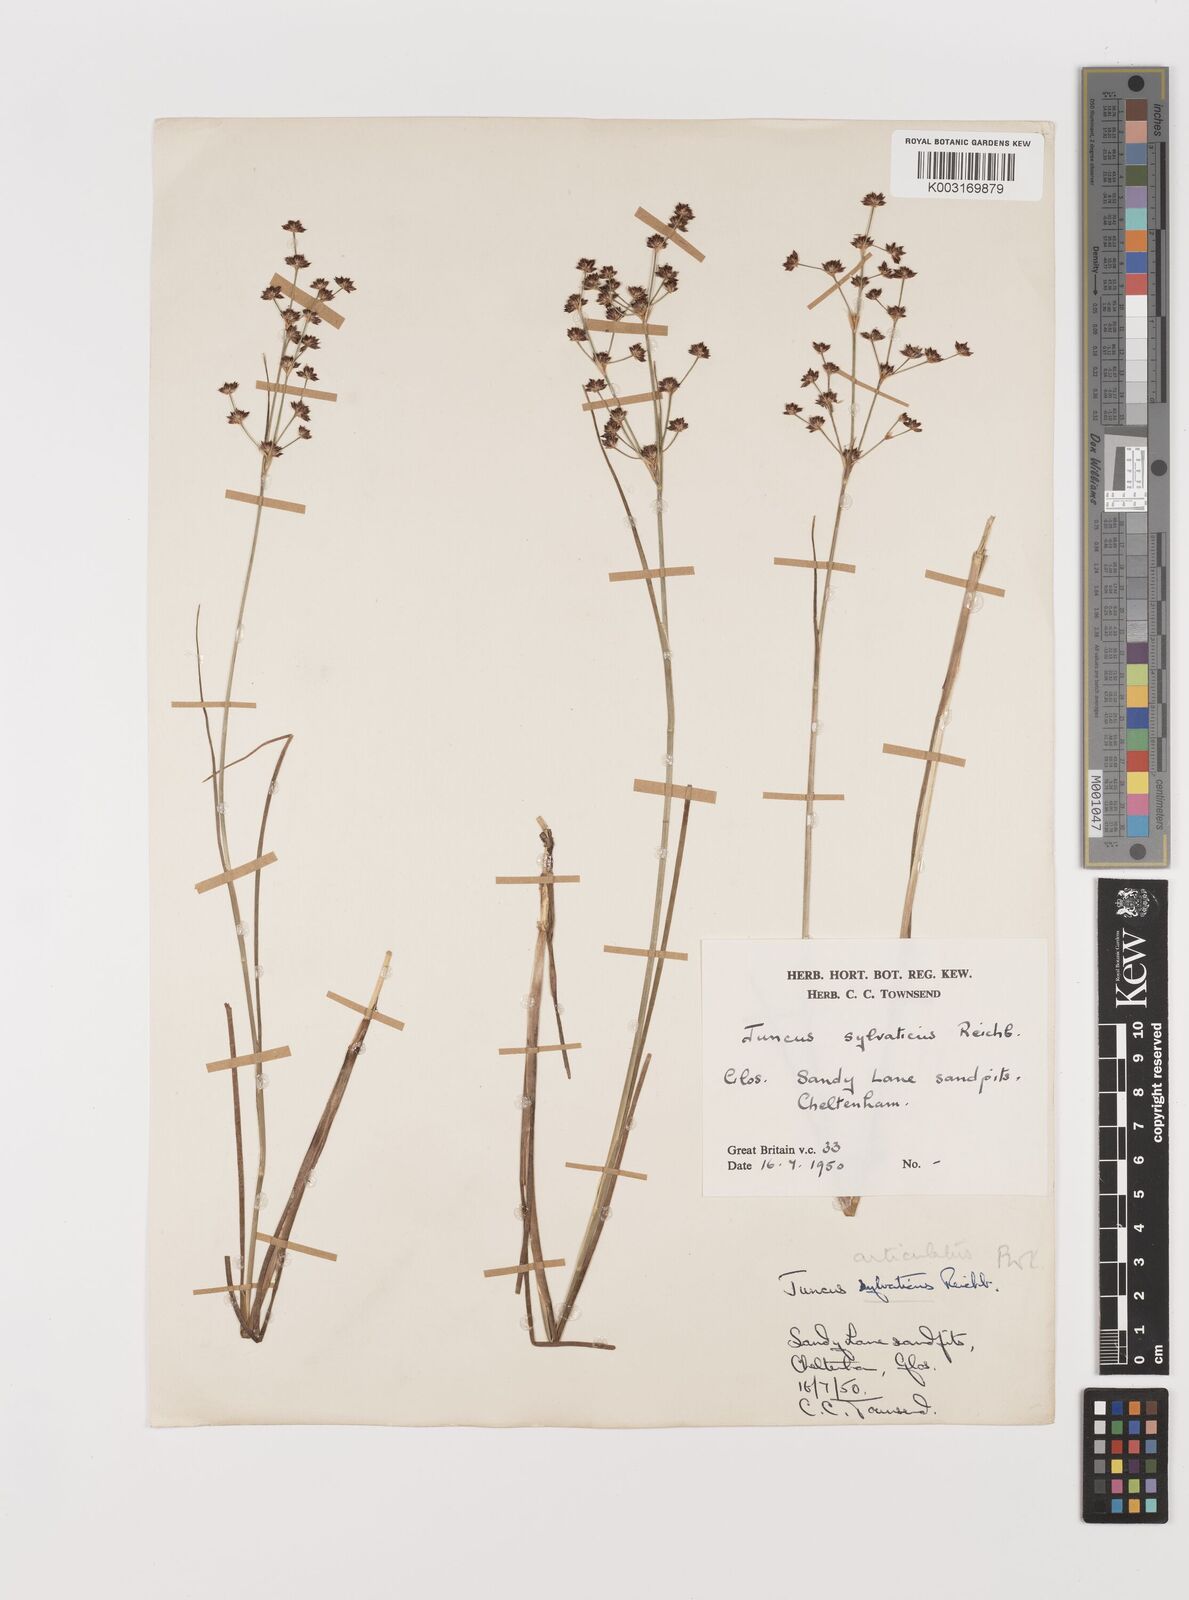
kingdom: Plantae
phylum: Tracheophyta
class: Liliopsida
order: Poales
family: Juncaceae
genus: Juncus
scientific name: Juncus articulatus
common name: Jointed rush
